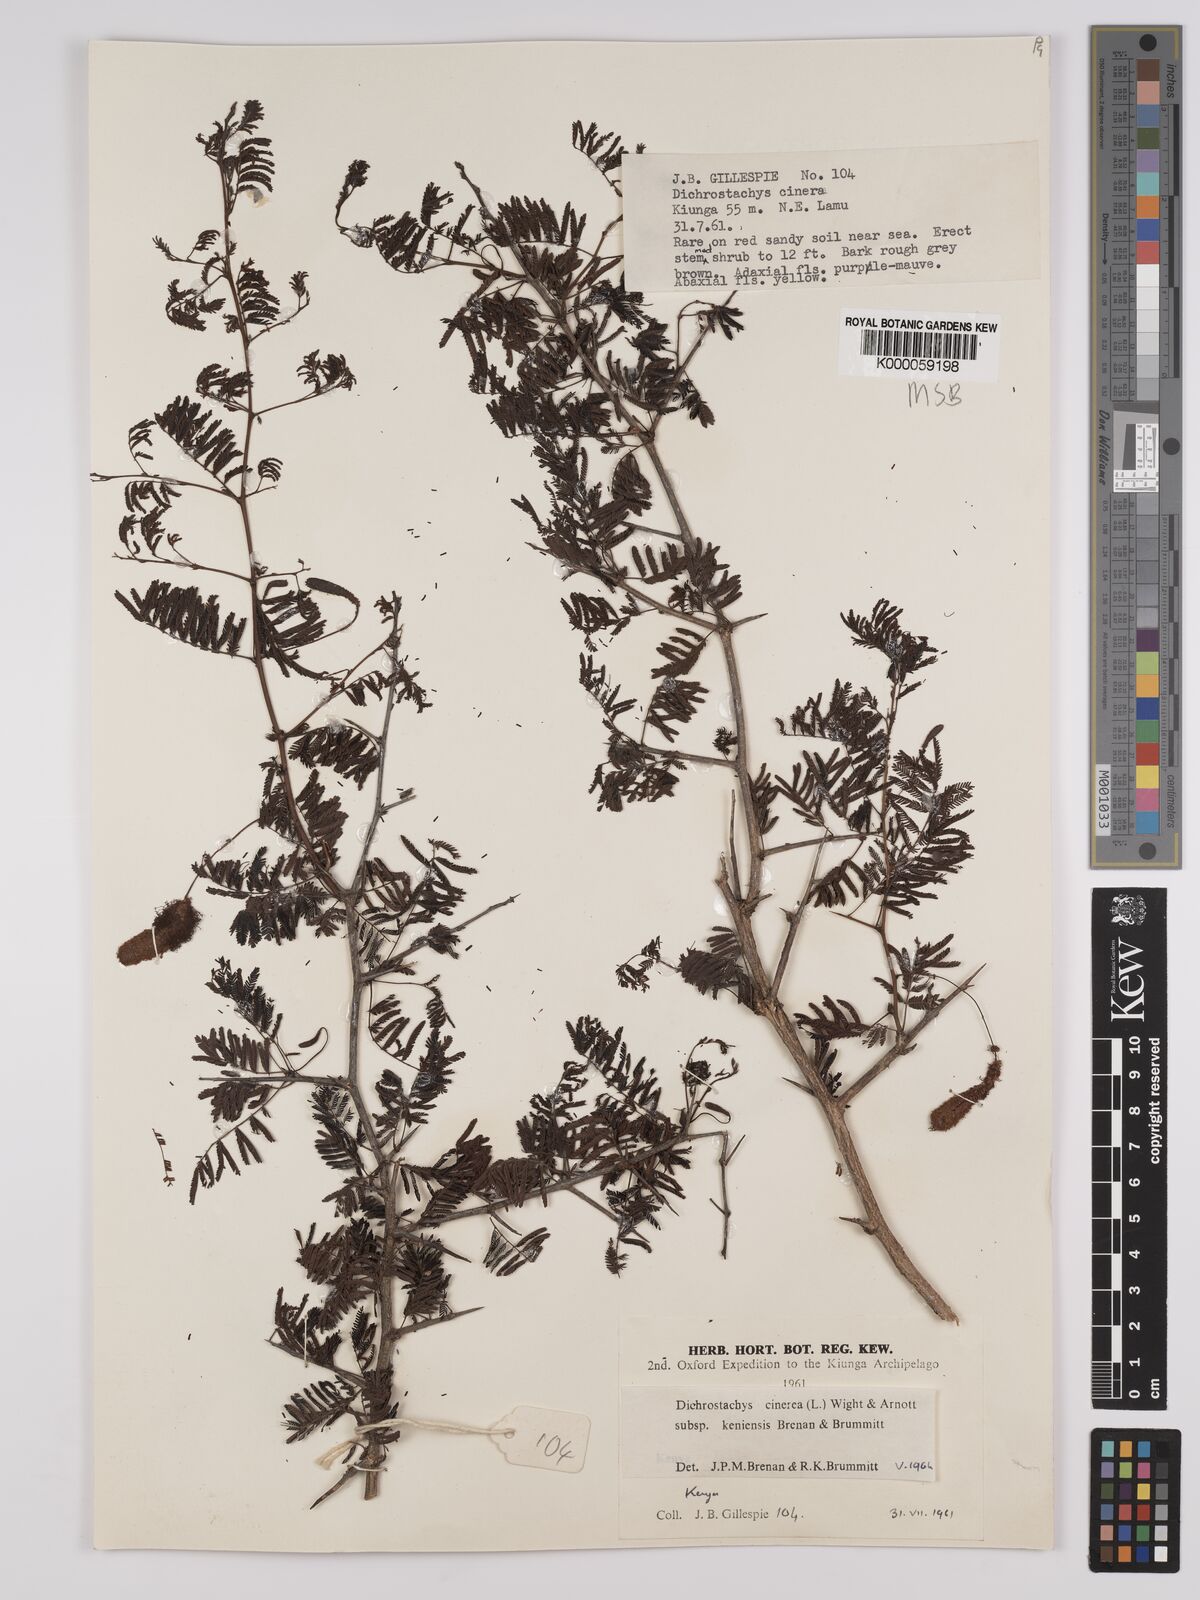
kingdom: Plantae
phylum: Tracheophyta
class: Magnoliopsida
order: Fabales
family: Fabaceae
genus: Dichrostachys
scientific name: Dichrostachys cinerea
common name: Sicklebush
